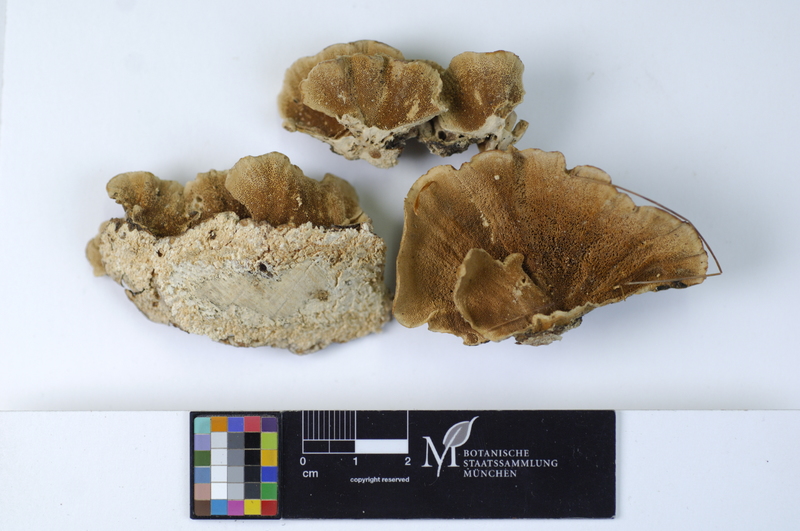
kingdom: Fungi
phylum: Basidiomycota
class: Agaricomycetes
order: Polyporales
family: Polyporaceae
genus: Trametes
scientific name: Trametes versicolor
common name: Turkeytail
